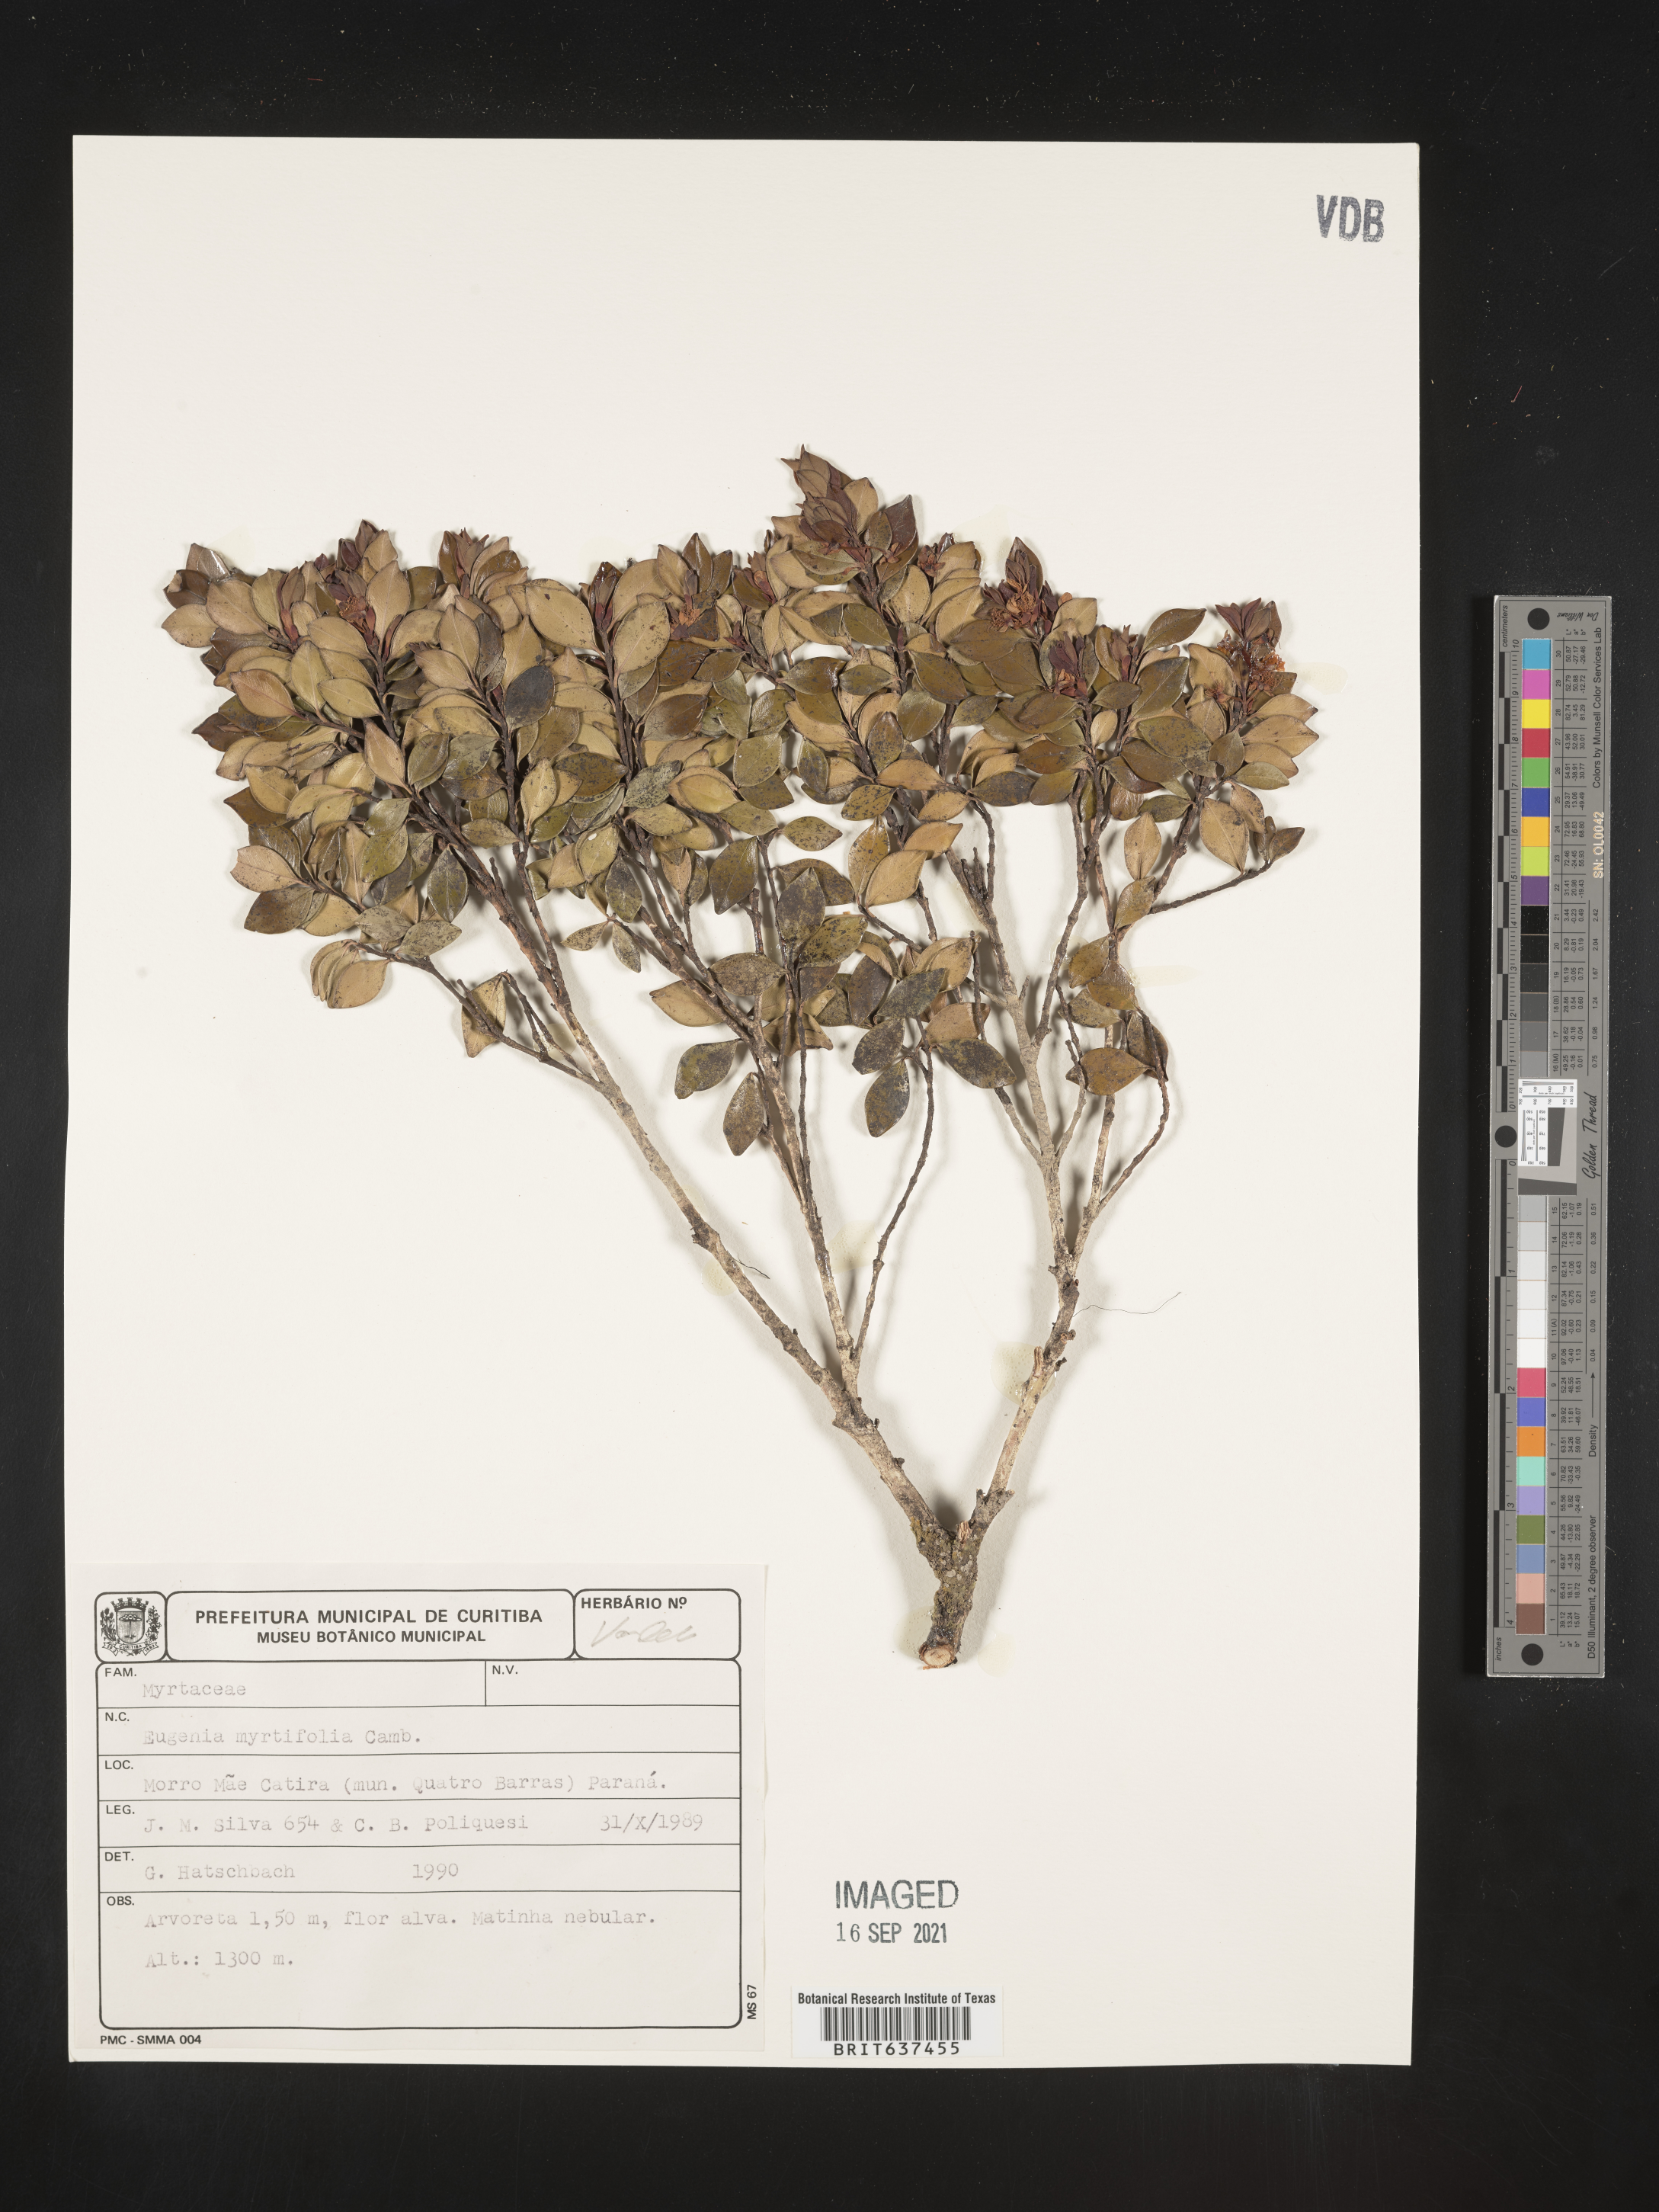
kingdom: Plantae
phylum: Tracheophyta
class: Magnoliopsida
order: Myrtales
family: Myrtaceae
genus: Eugenia
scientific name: Eugenia
